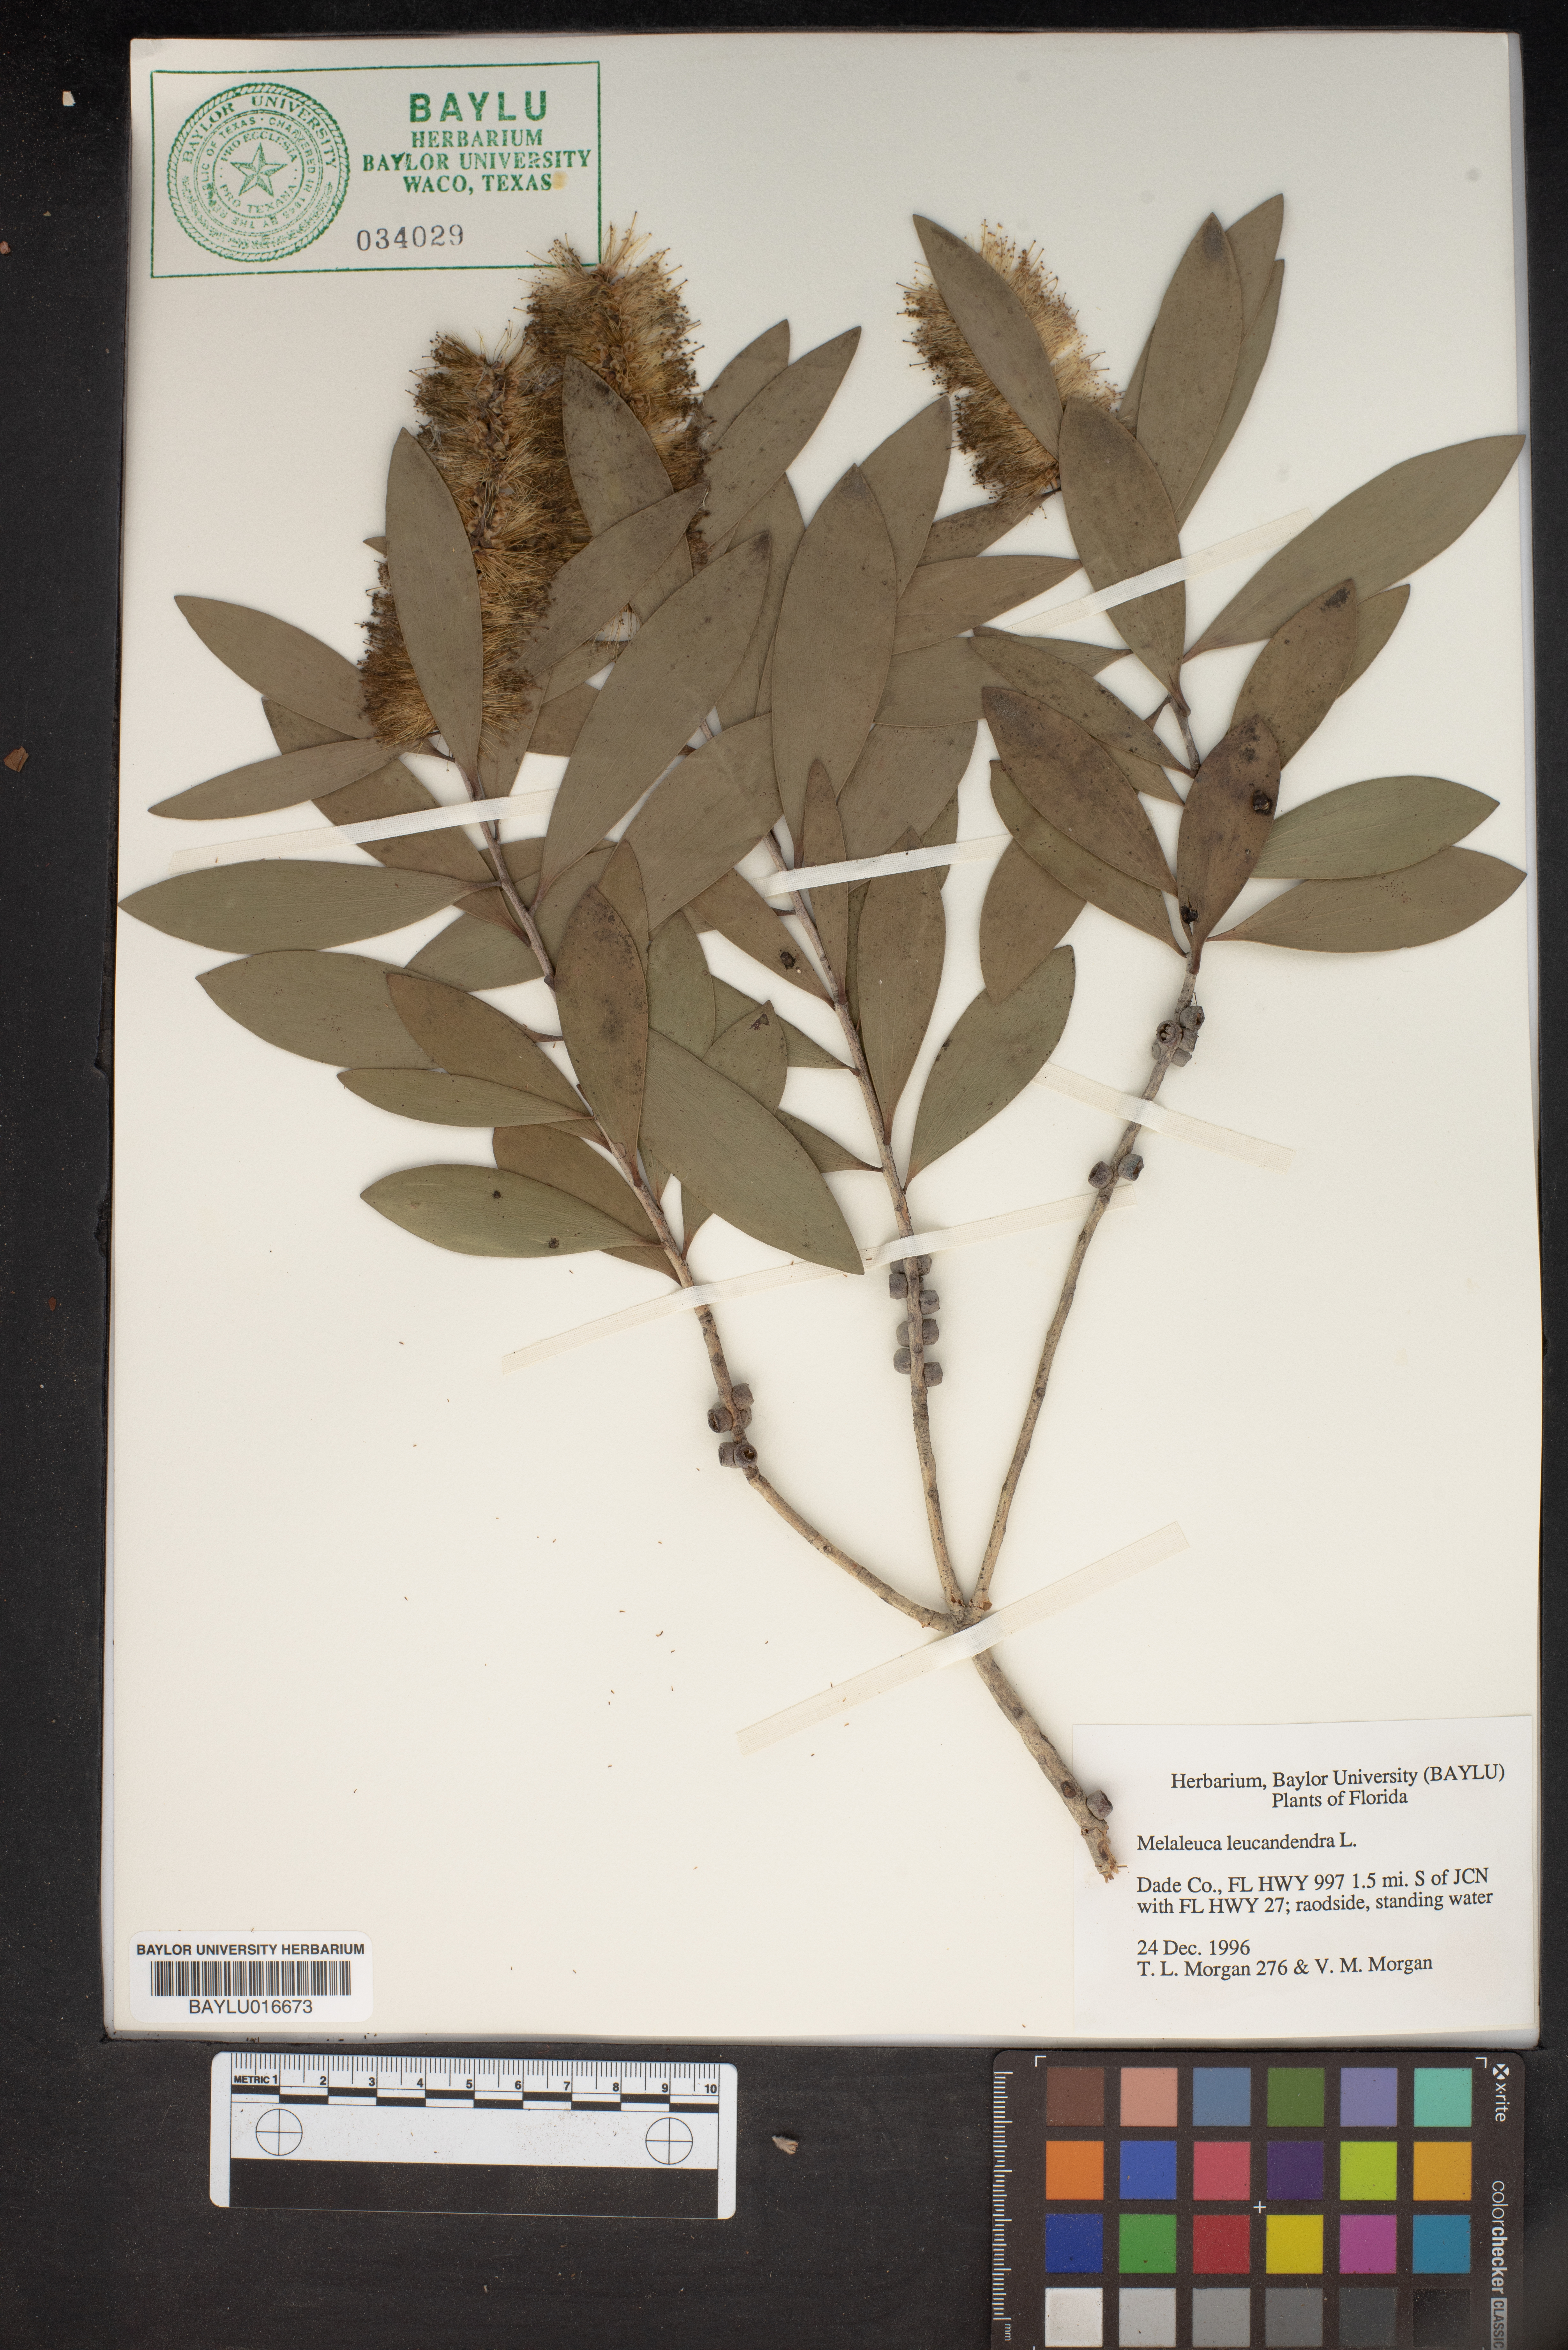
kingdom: Plantae
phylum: Tracheophyta
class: Magnoliopsida
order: Myrtales
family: Myrtaceae
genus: Melaleuca
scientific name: Melaleuca leucadendra
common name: Weeping paperbark
